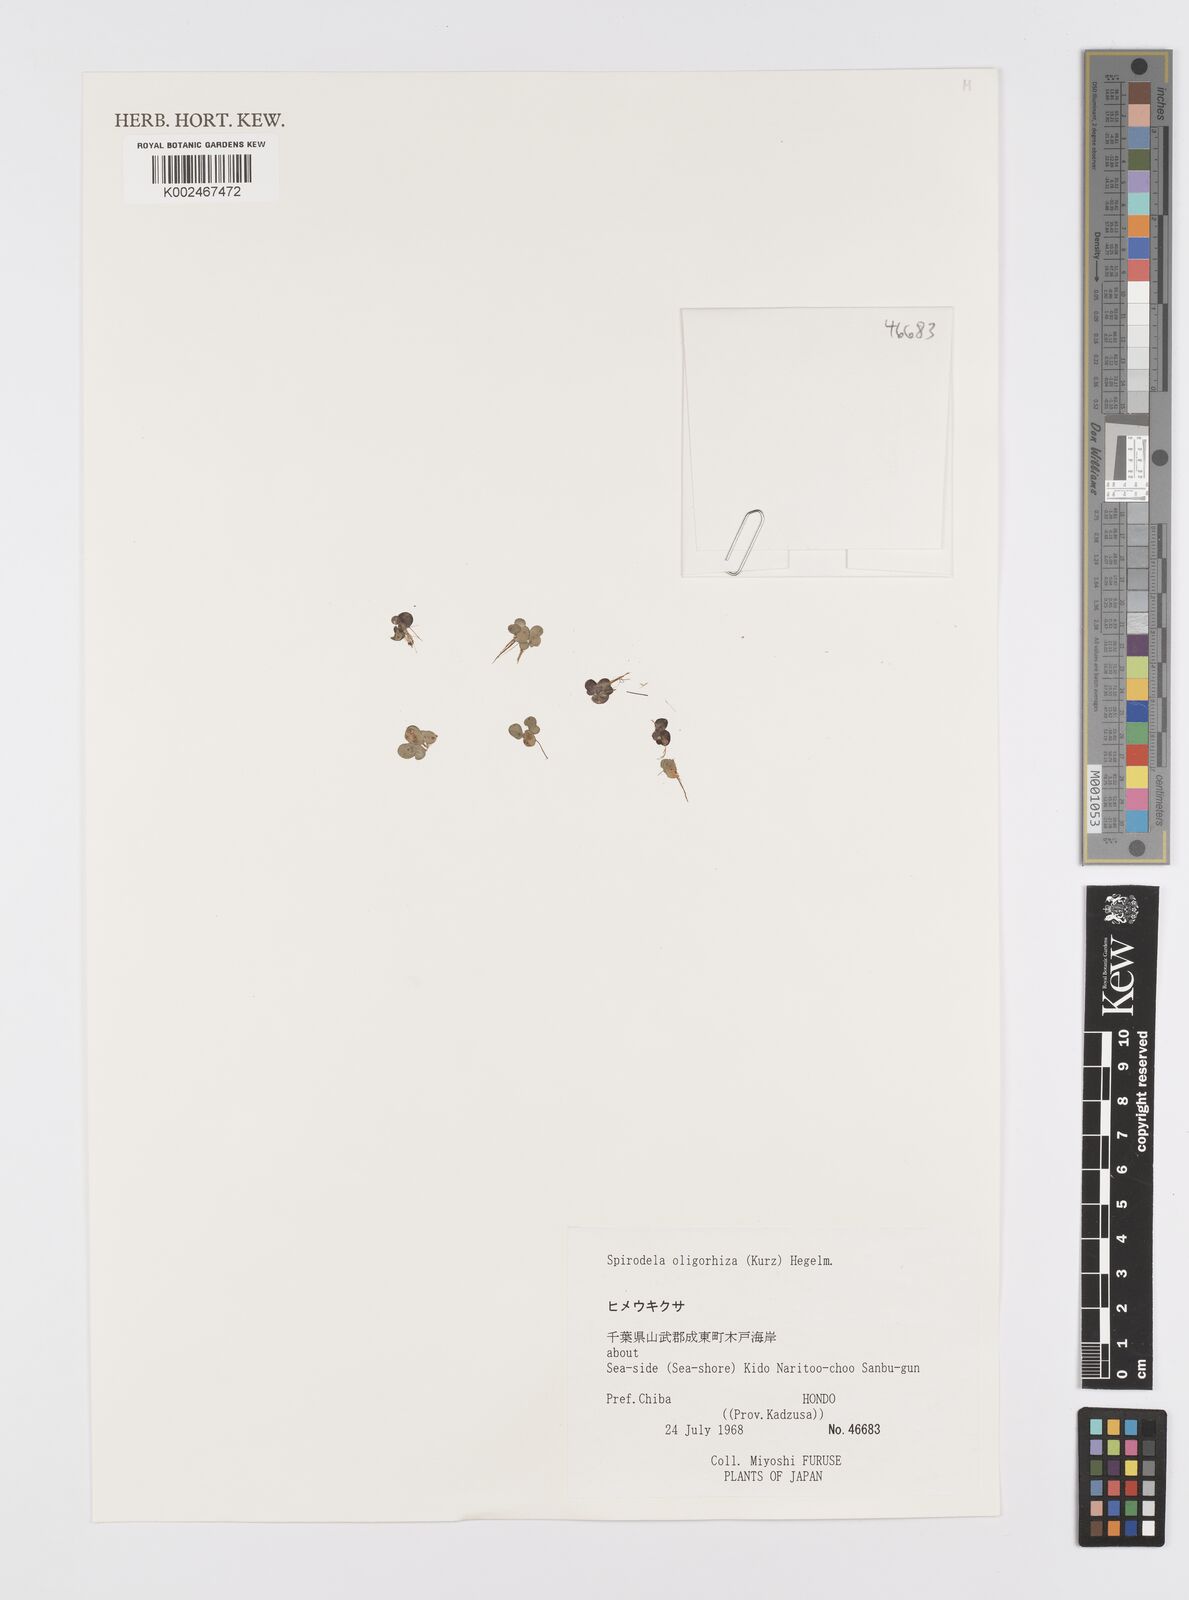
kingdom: Plantae
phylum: Tracheophyta
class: Liliopsida
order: Alismatales
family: Araceae
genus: Spirodela
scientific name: Spirodela punctata
